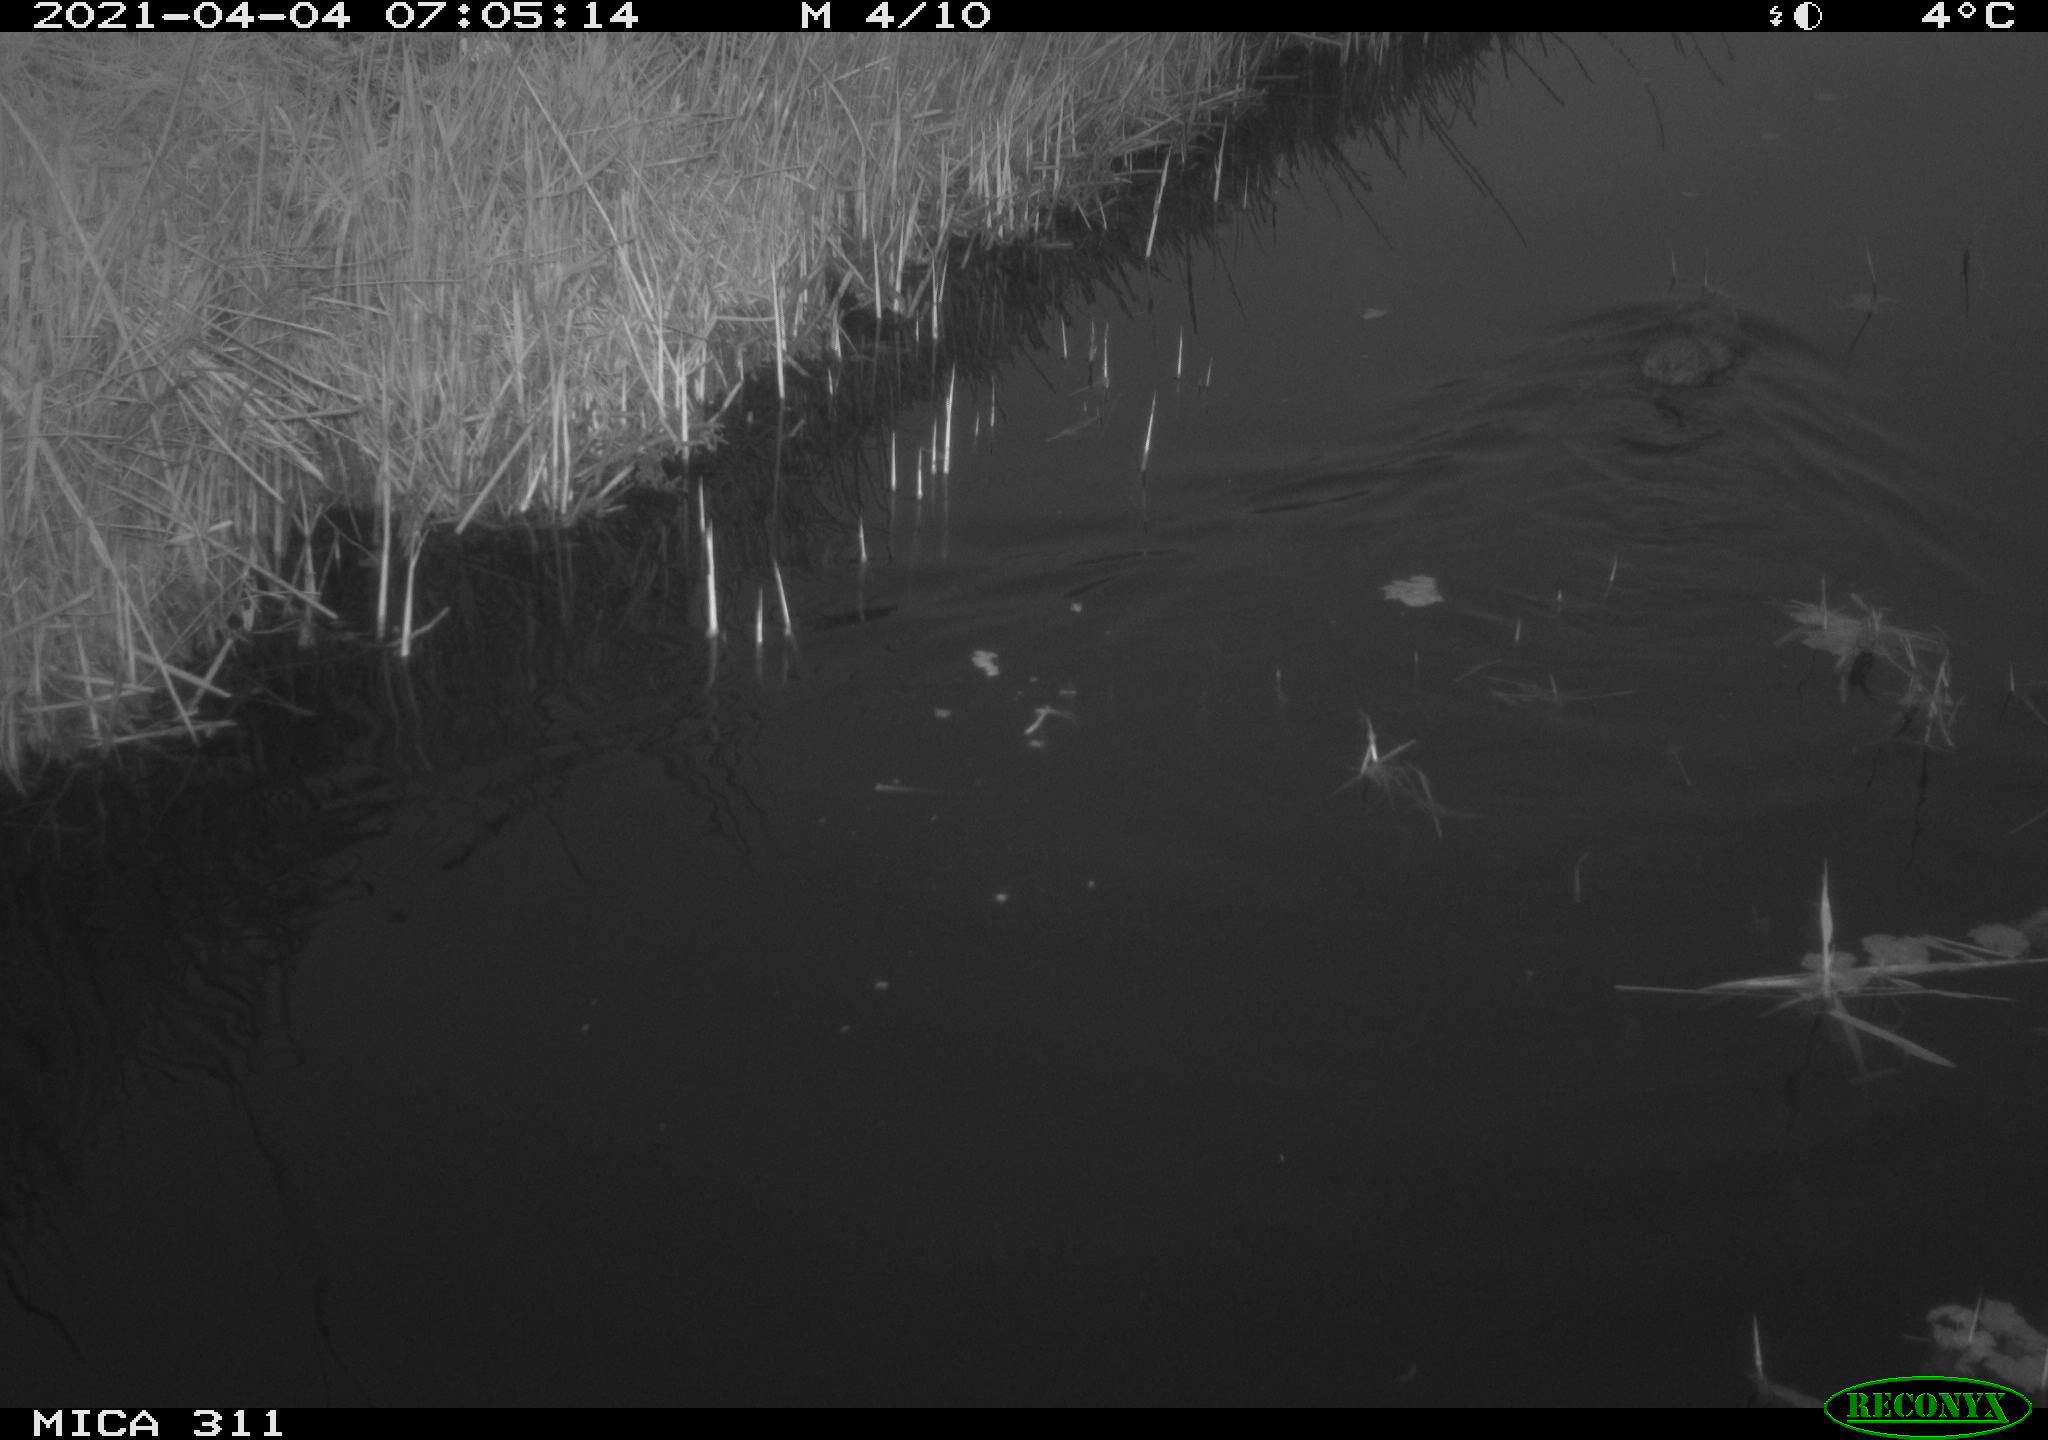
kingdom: Animalia
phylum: Chordata
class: Mammalia
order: Rodentia
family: Cricetidae
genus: Ondatra
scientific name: Ondatra zibethicus
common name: Muskrat
